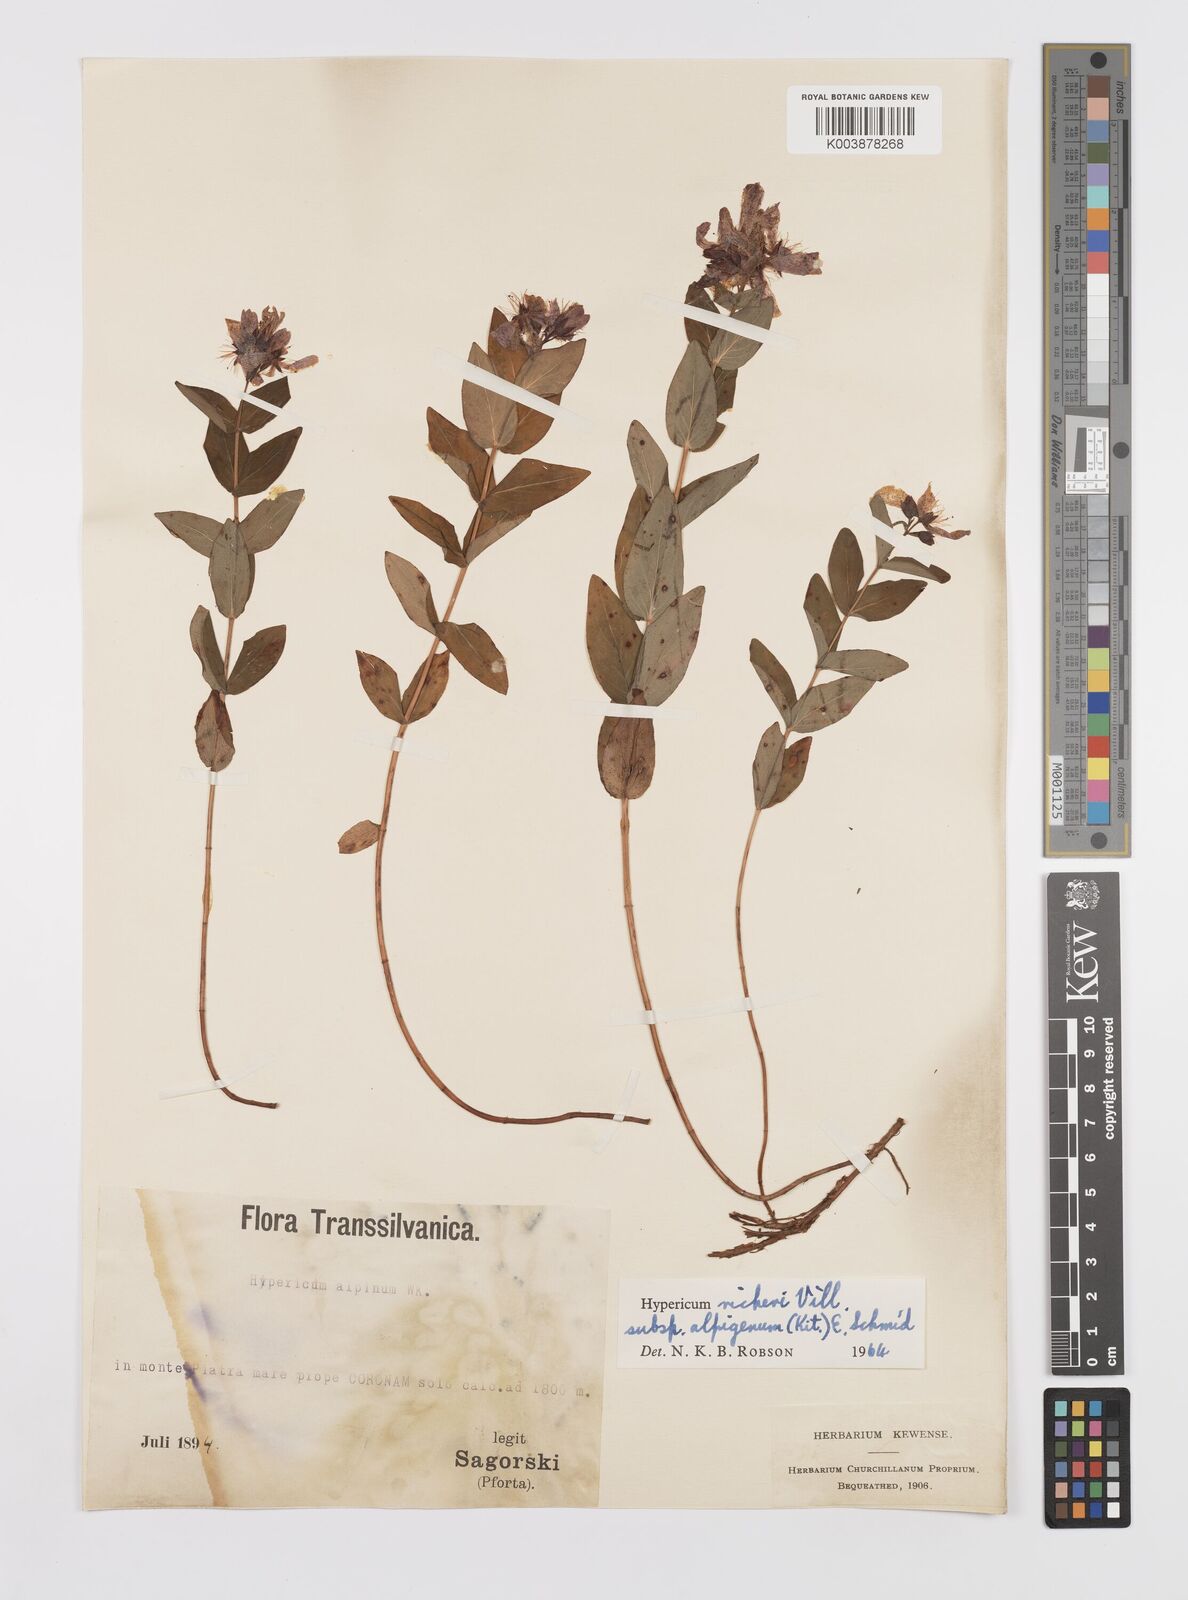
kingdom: Plantae
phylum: Tracheophyta
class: Magnoliopsida
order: Malpighiales
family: Hypericaceae
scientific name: Hypericaceae
